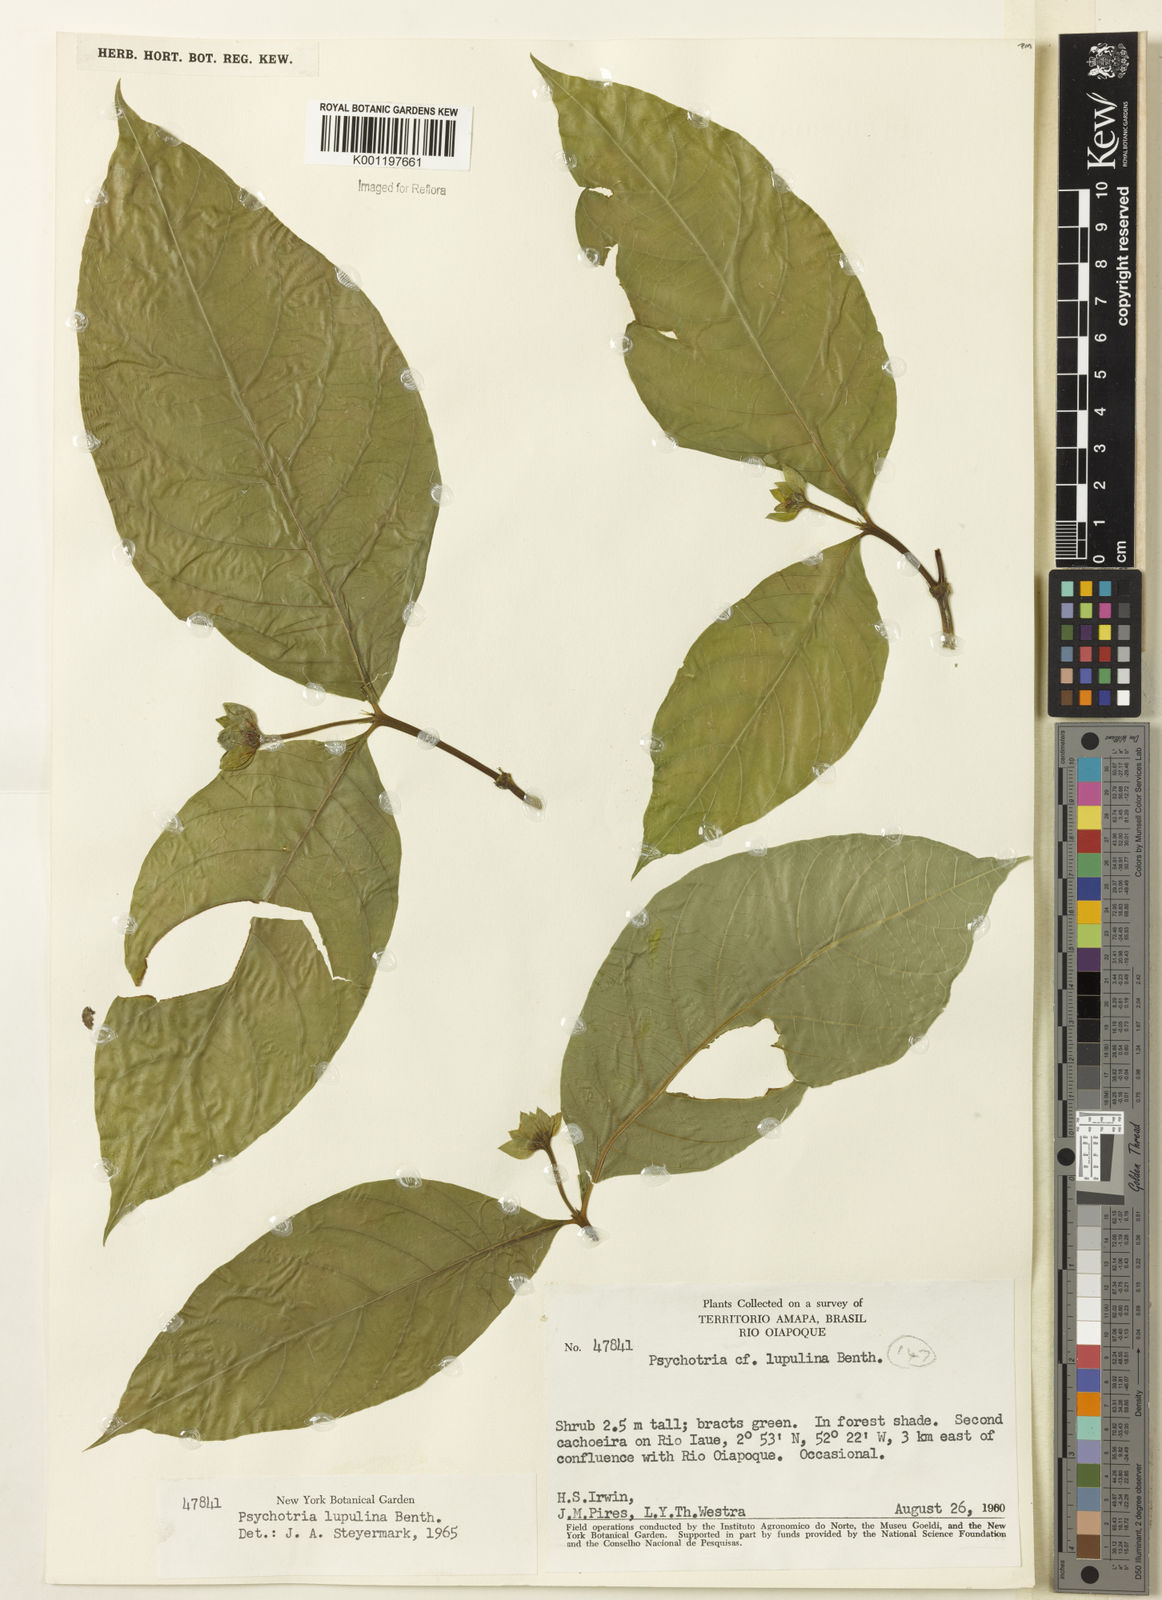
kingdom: Plantae
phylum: Tracheophyta
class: Magnoliopsida
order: Gentianales
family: Rubiaceae
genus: Palicourea
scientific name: Palicourea justiciifolia
